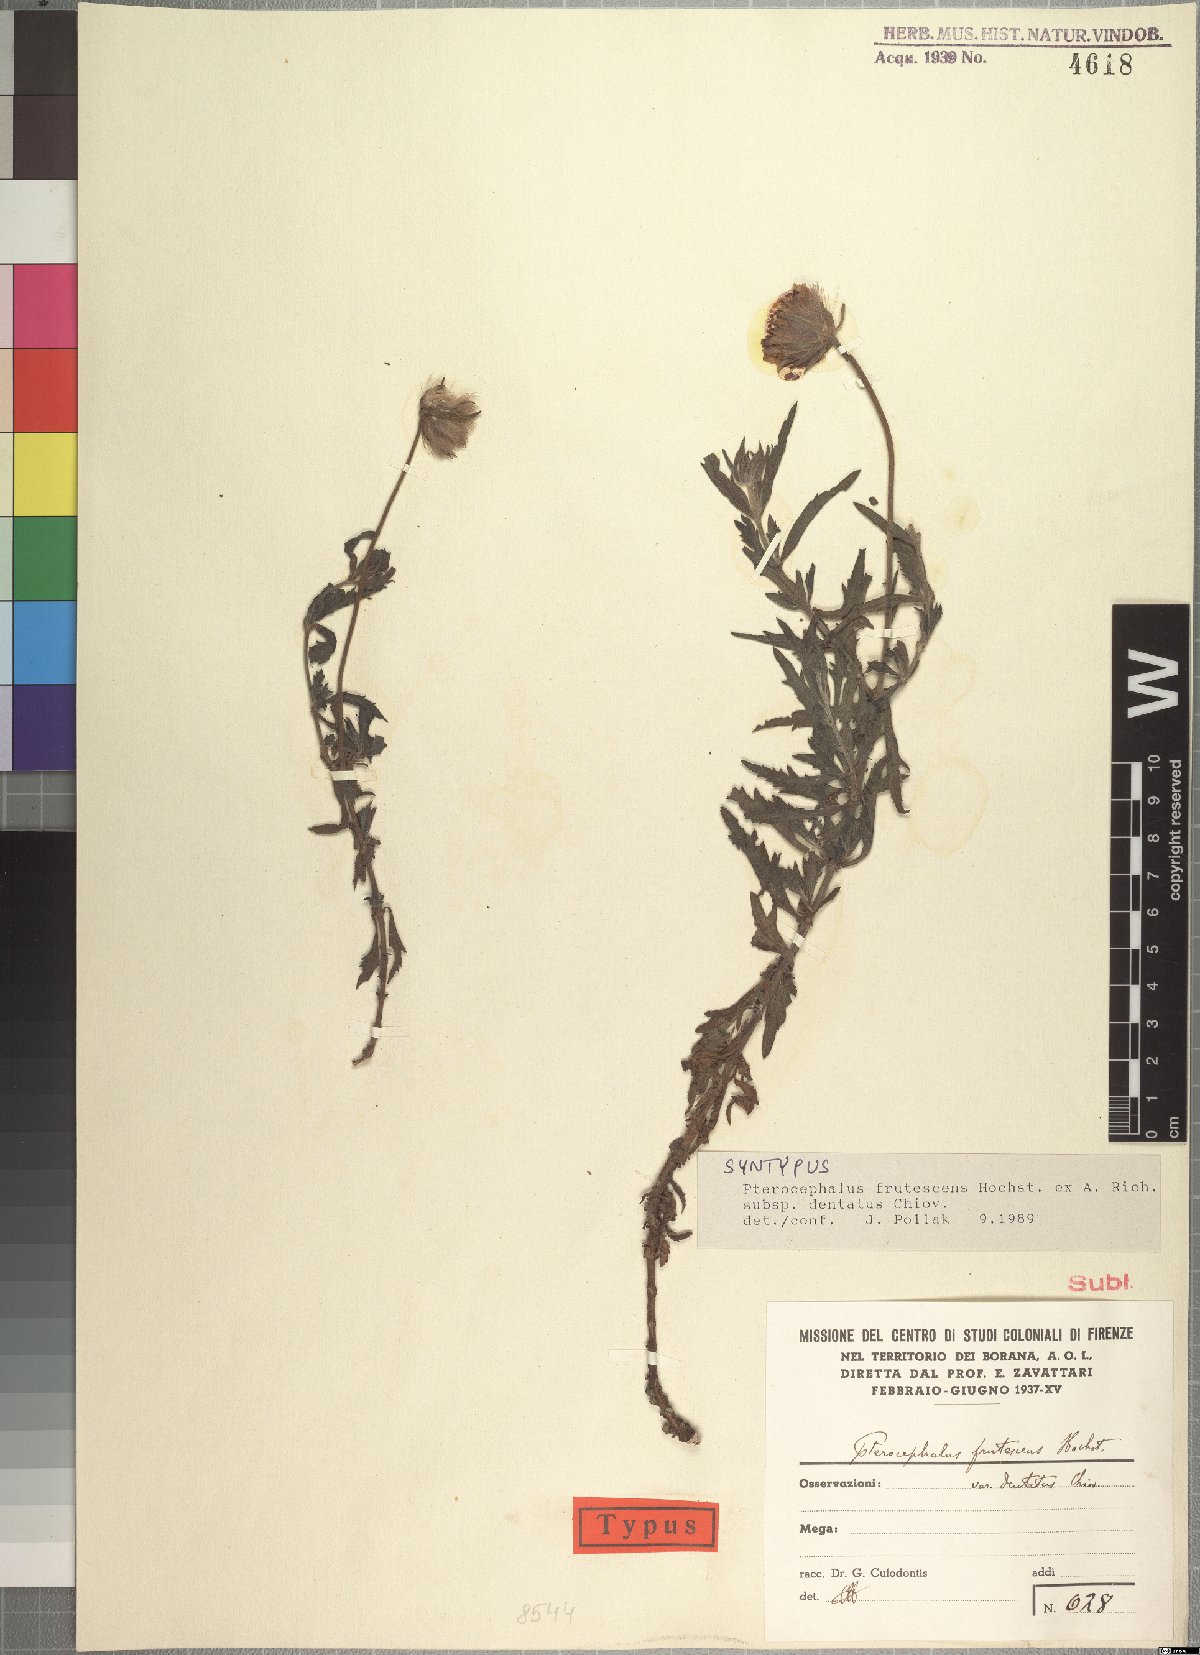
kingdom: Plantae
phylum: Tracheophyta
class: Magnoliopsida
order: Dipsacales
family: Caprifoliaceae
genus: Pterocephalus
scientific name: Pterocephalus frutescens
